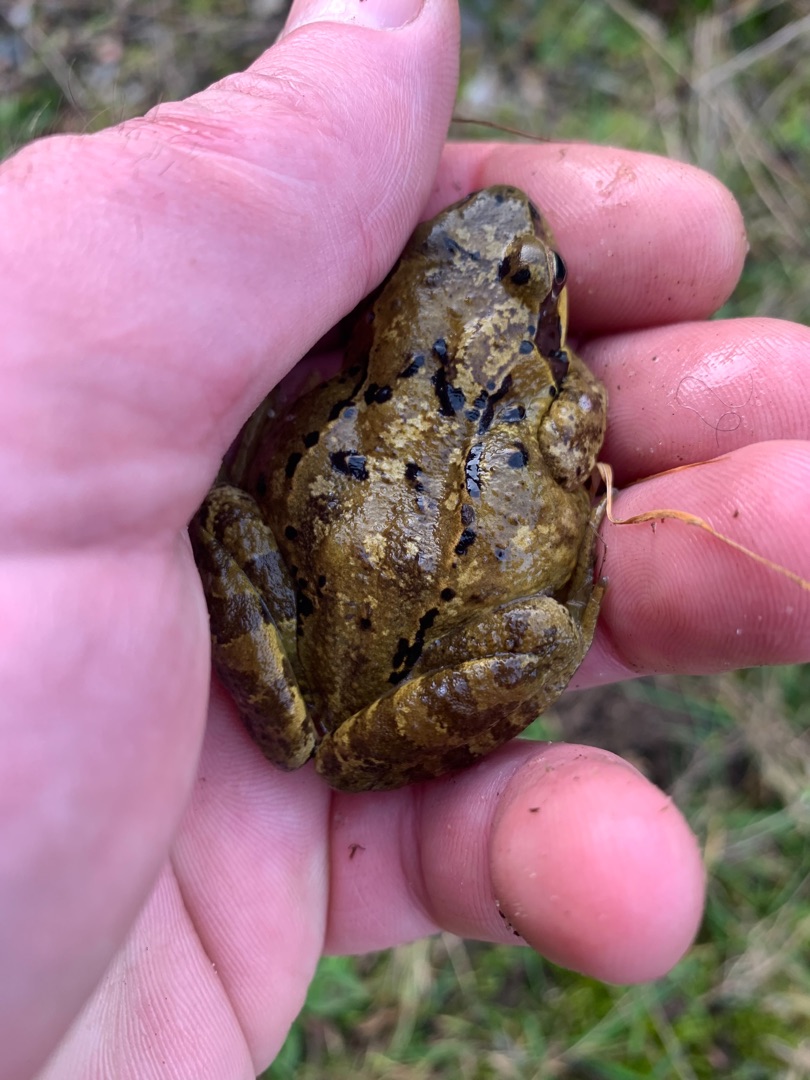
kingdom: Animalia
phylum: Chordata
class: Amphibia
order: Anura
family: Ranidae
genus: Rana
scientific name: Rana temporaria
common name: Butsnudet frø
